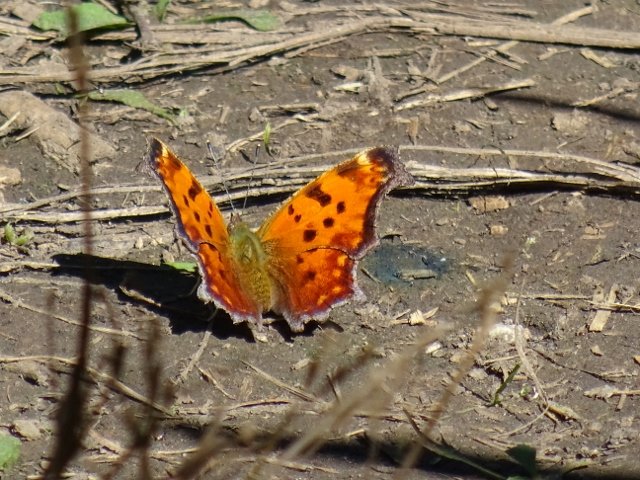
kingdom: Animalia
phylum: Arthropoda
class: Insecta
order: Lepidoptera
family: Nymphalidae
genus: Polygonia
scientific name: Polygonia comma
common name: Eastern Comma
